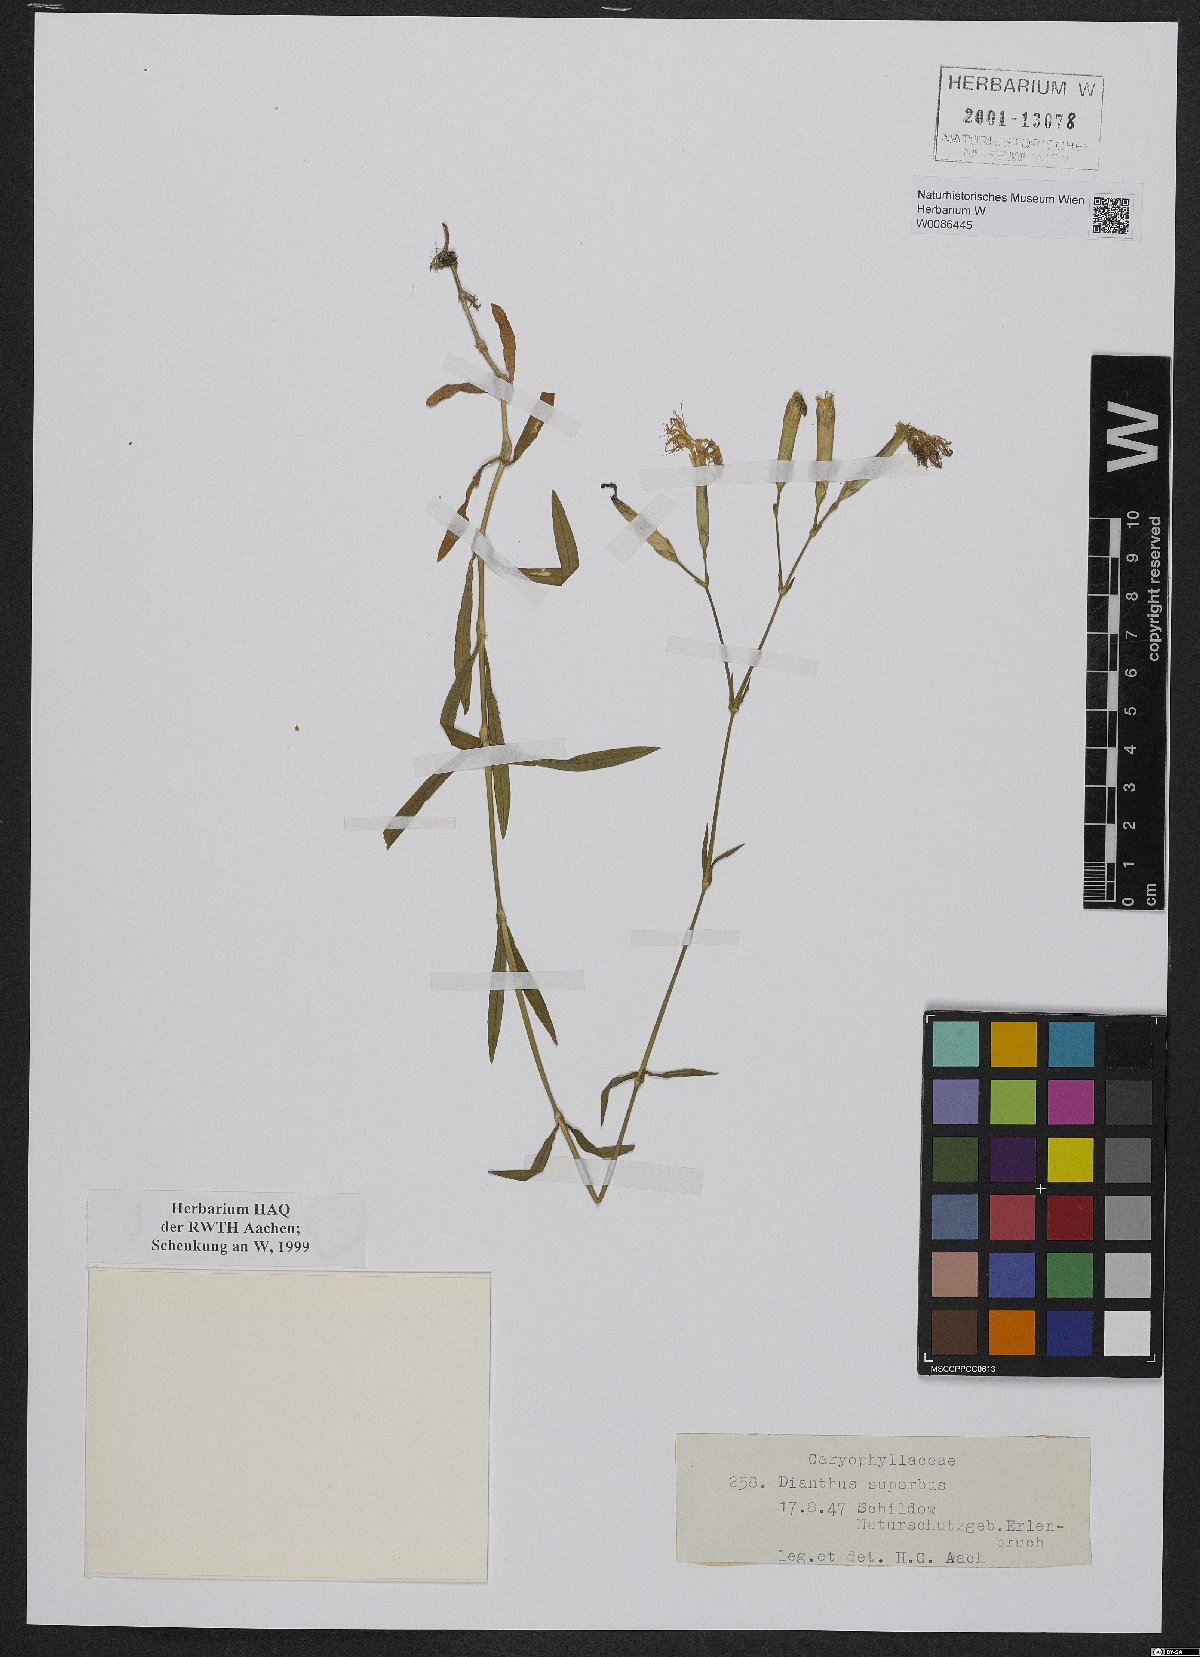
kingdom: Plantae
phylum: Tracheophyta
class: Magnoliopsida
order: Caryophyllales
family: Caryophyllaceae
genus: Dianthus
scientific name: Dianthus superbus
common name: Fringed pink
